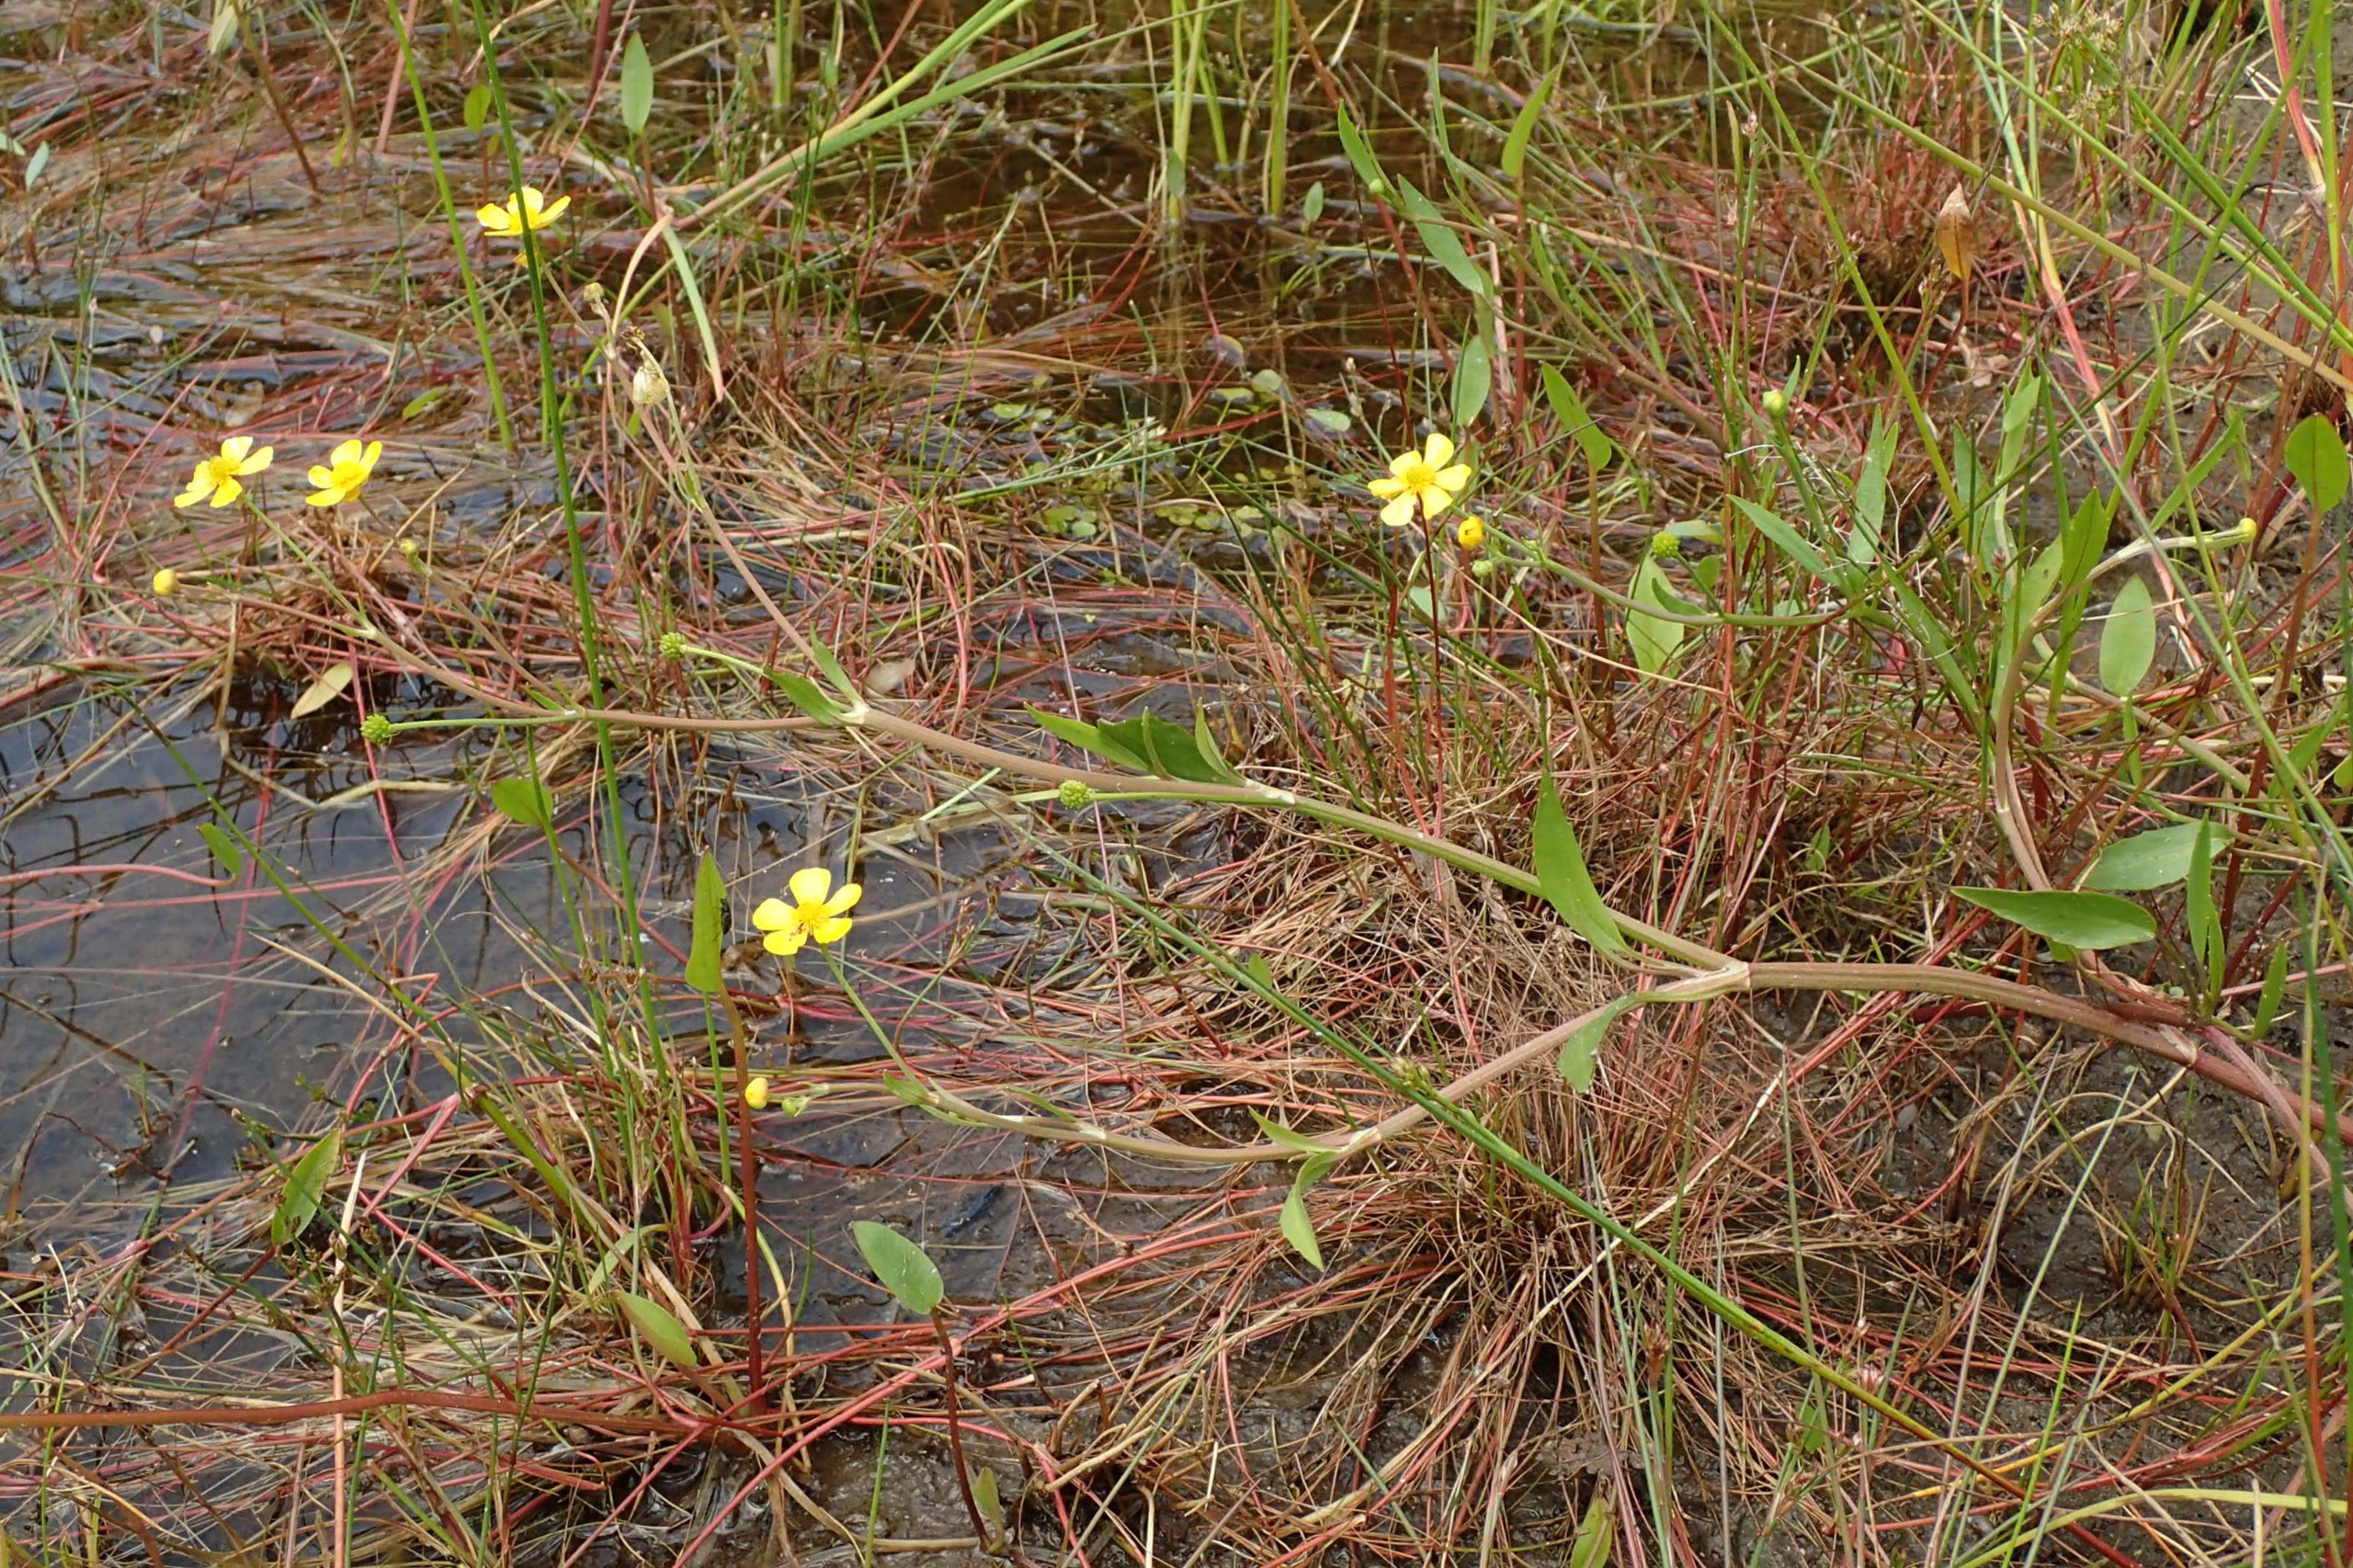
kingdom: Plantae
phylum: Tracheophyta
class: Magnoliopsida
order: Ranunculales
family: Ranunculaceae
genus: Ranunculus
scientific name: Ranunculus flammula
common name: Kær-ranunkel
